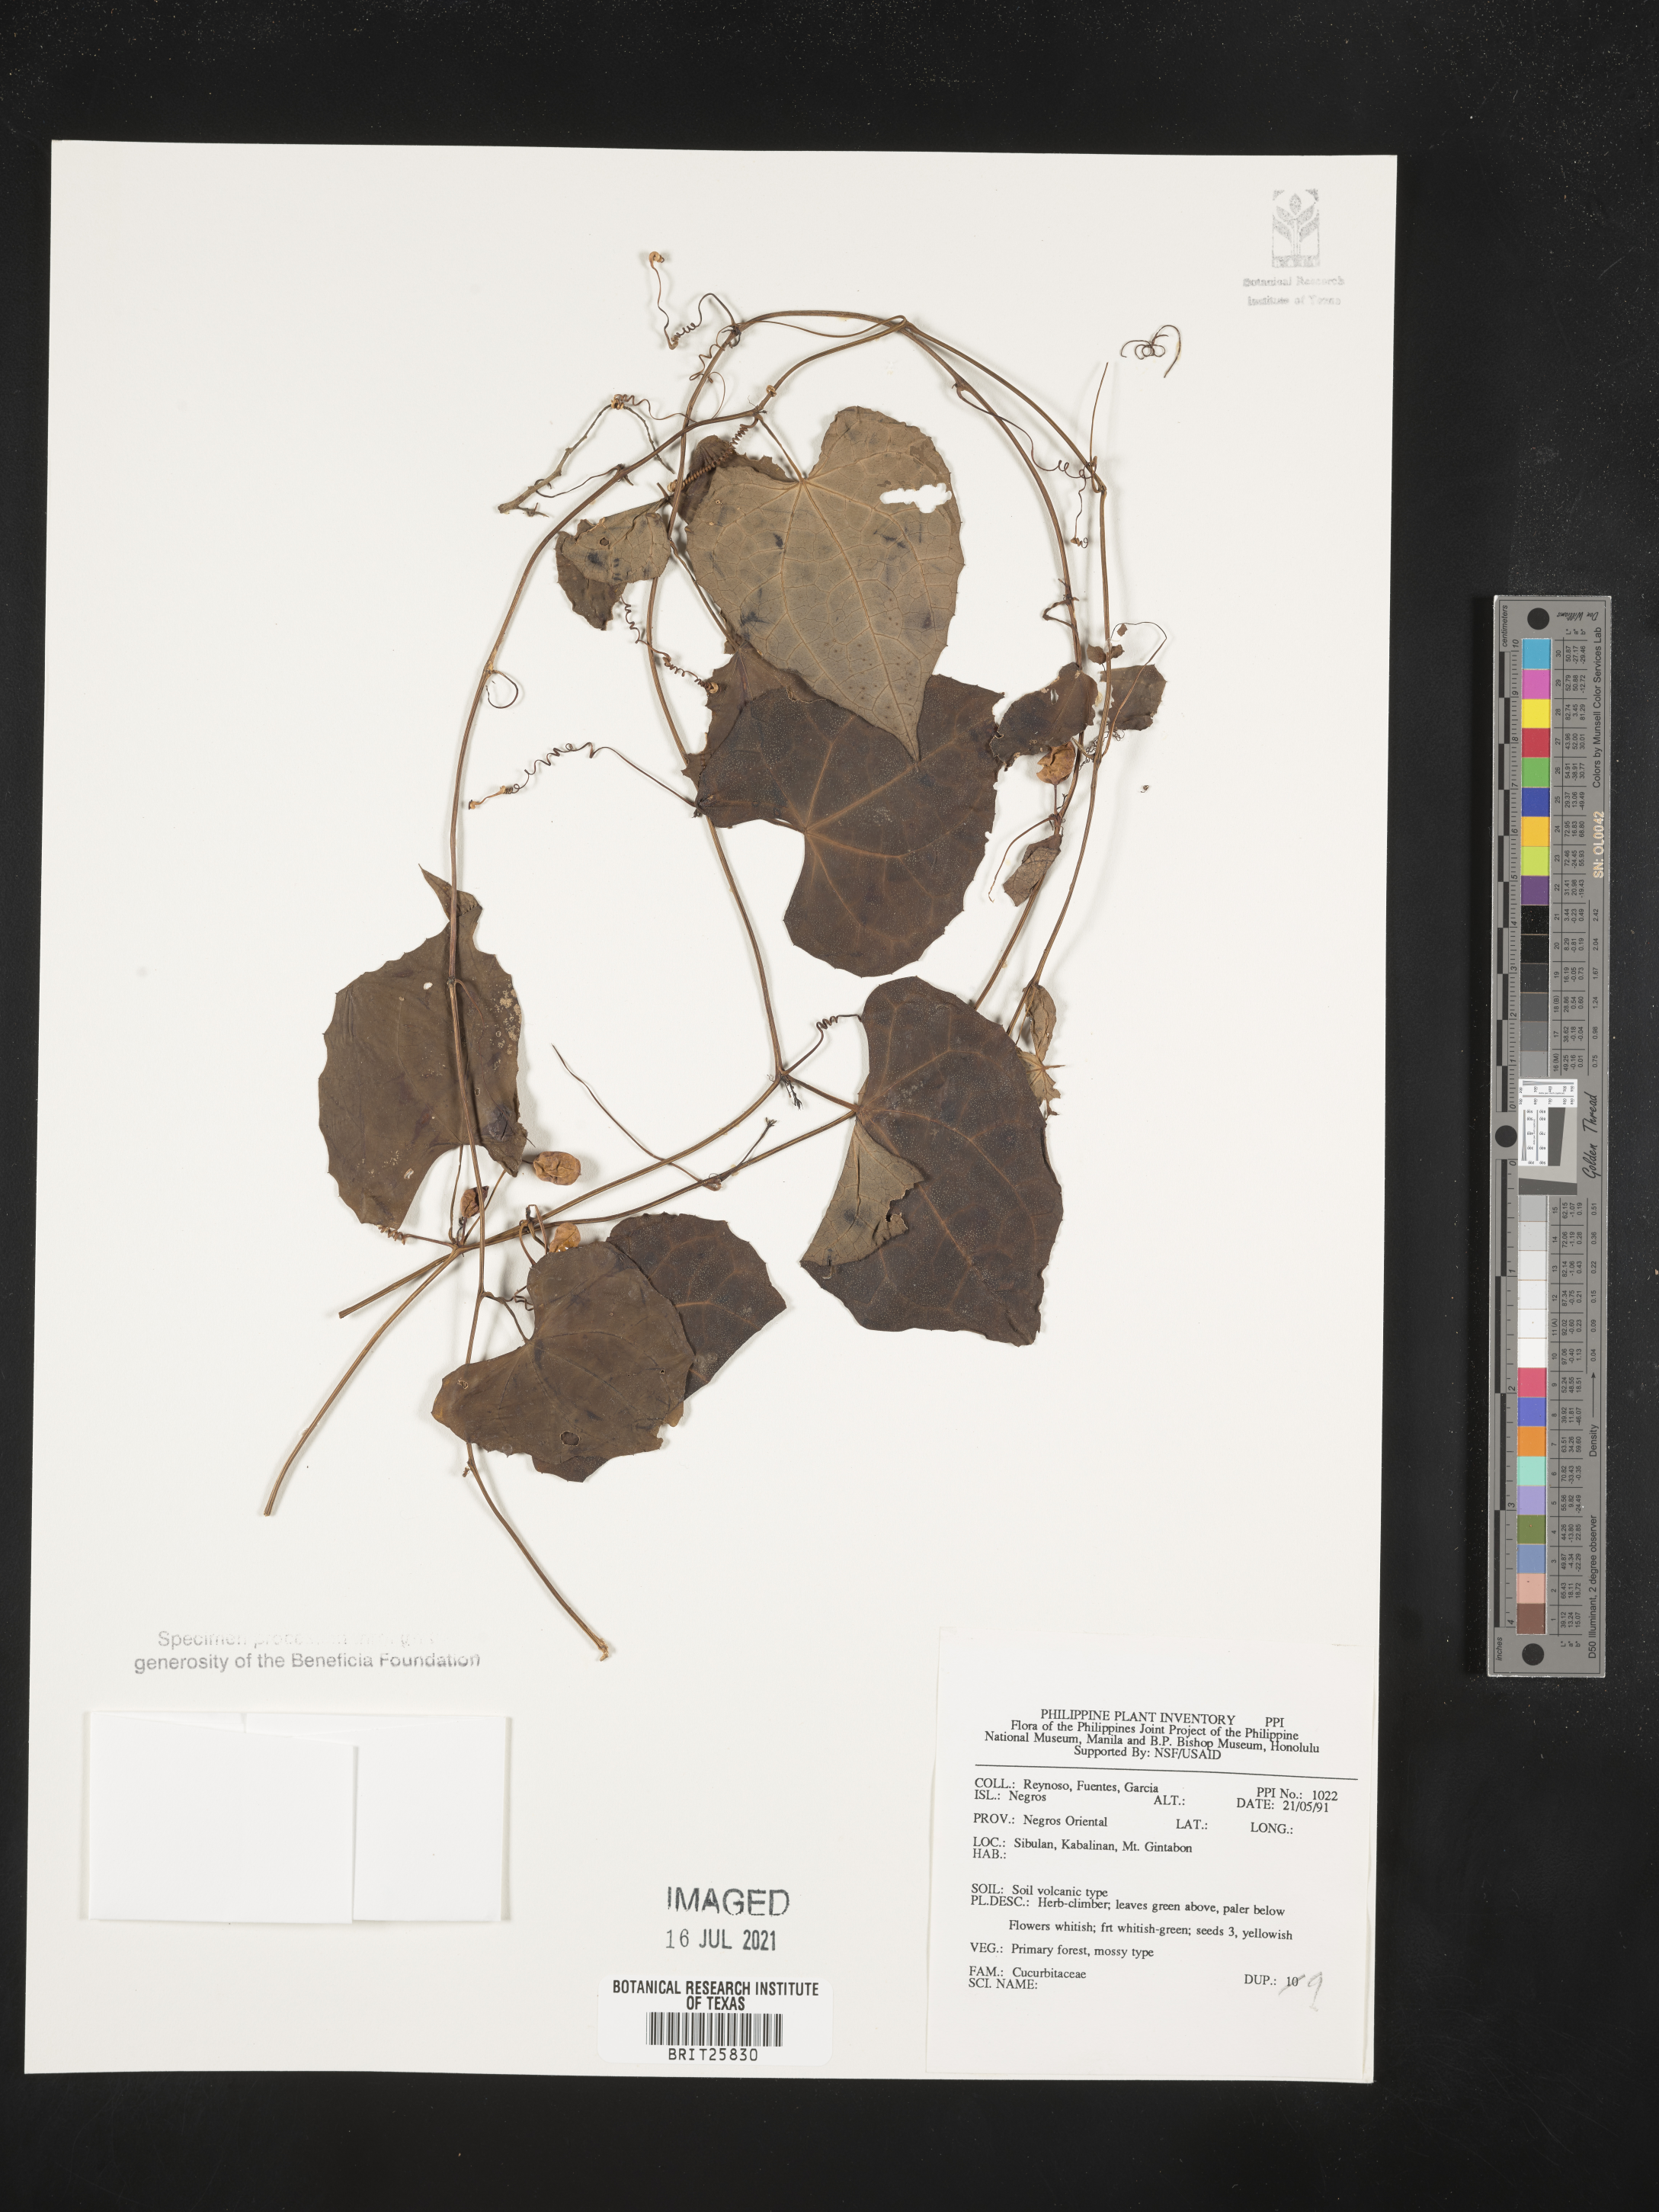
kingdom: Plantae
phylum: Tracheophyta
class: Magnoliopsida
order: Cucurbitales
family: Cucurbitaceae
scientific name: Cucurbitaceae
